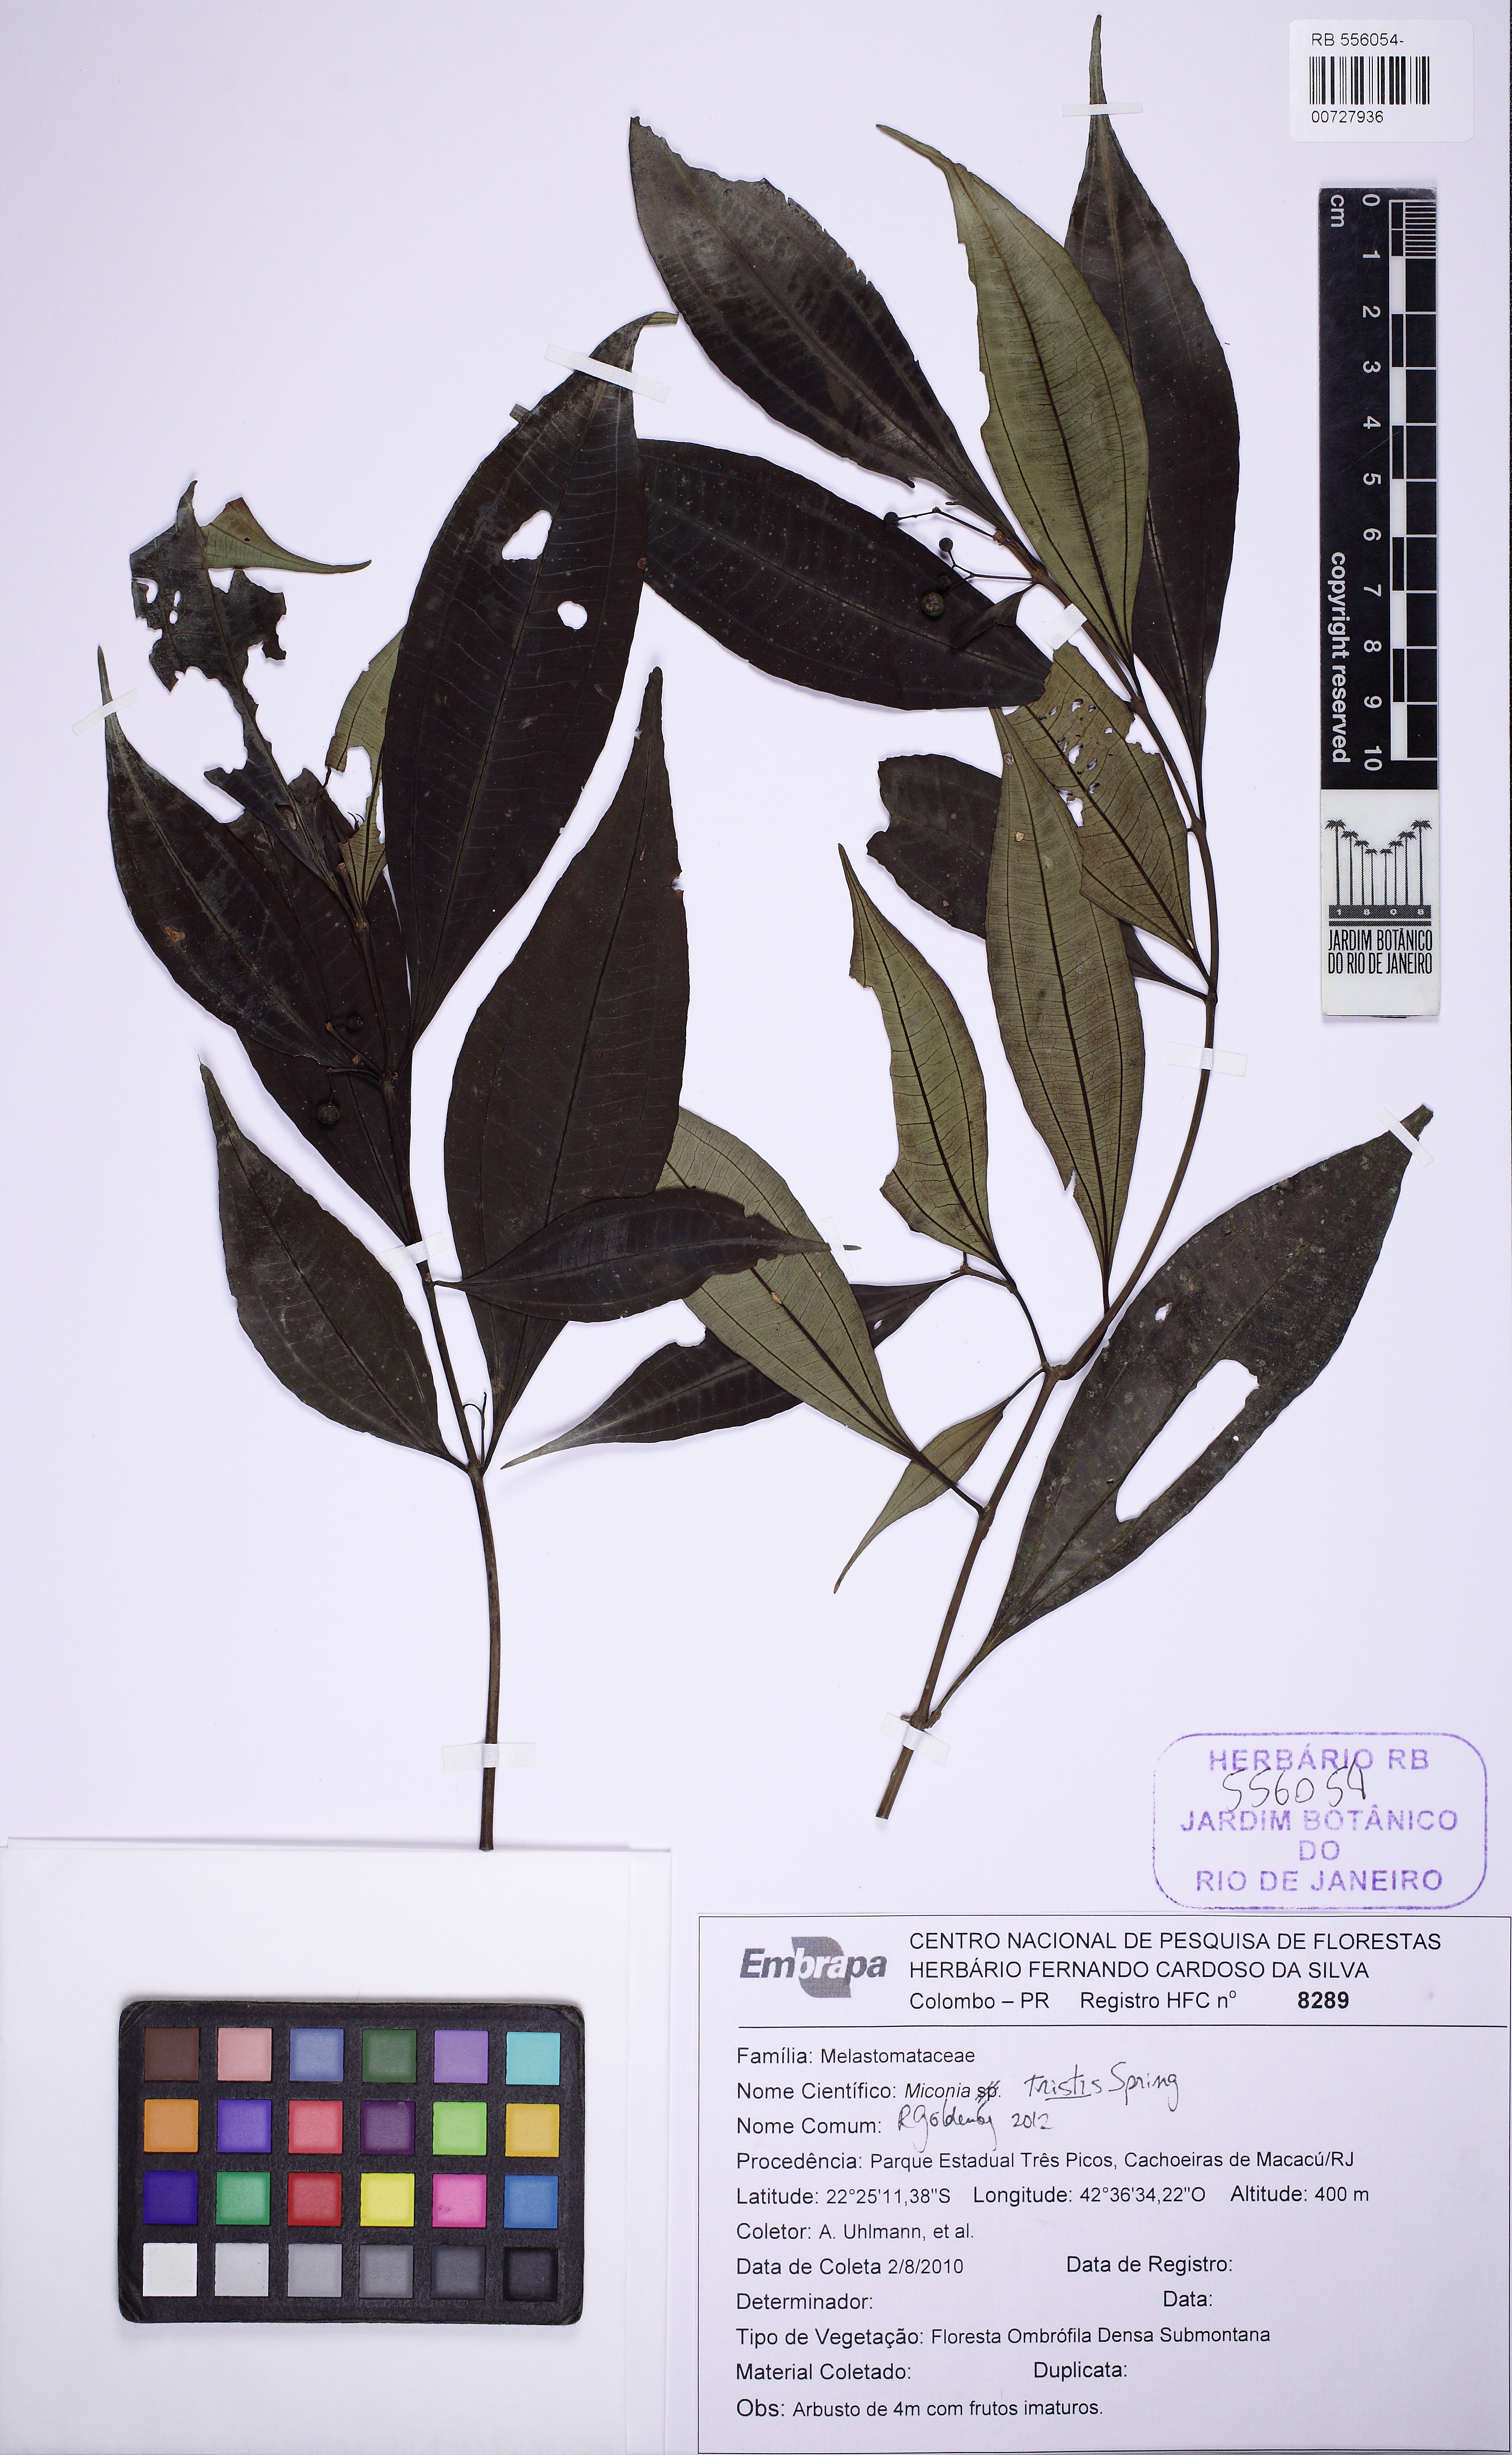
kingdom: Plantae
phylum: Tracheophyta
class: Magnoliopsida
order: Myrtales
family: Melastomataceae
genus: Miconia
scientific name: Miconia tristis
